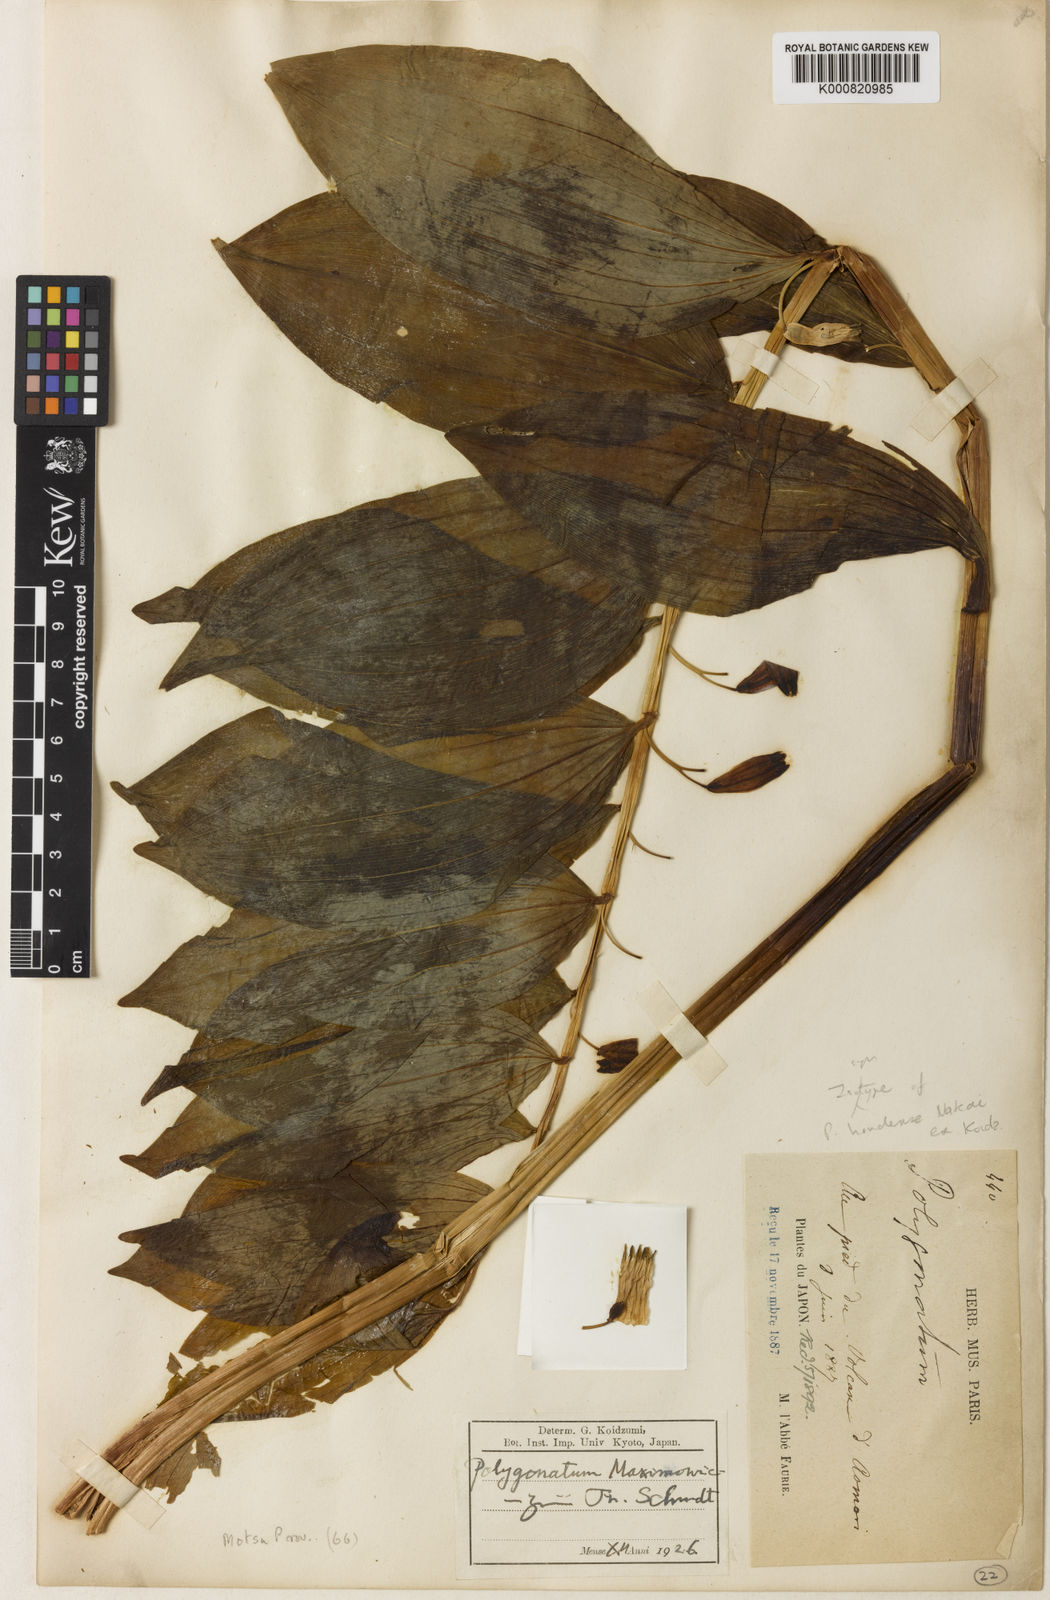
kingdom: Plantae
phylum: Tracheophyta
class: Liliopsida
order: Asparagales
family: Asparagaceae
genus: Polygonatum
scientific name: Polygonatum odoratum
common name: Angular solomon's-seal
